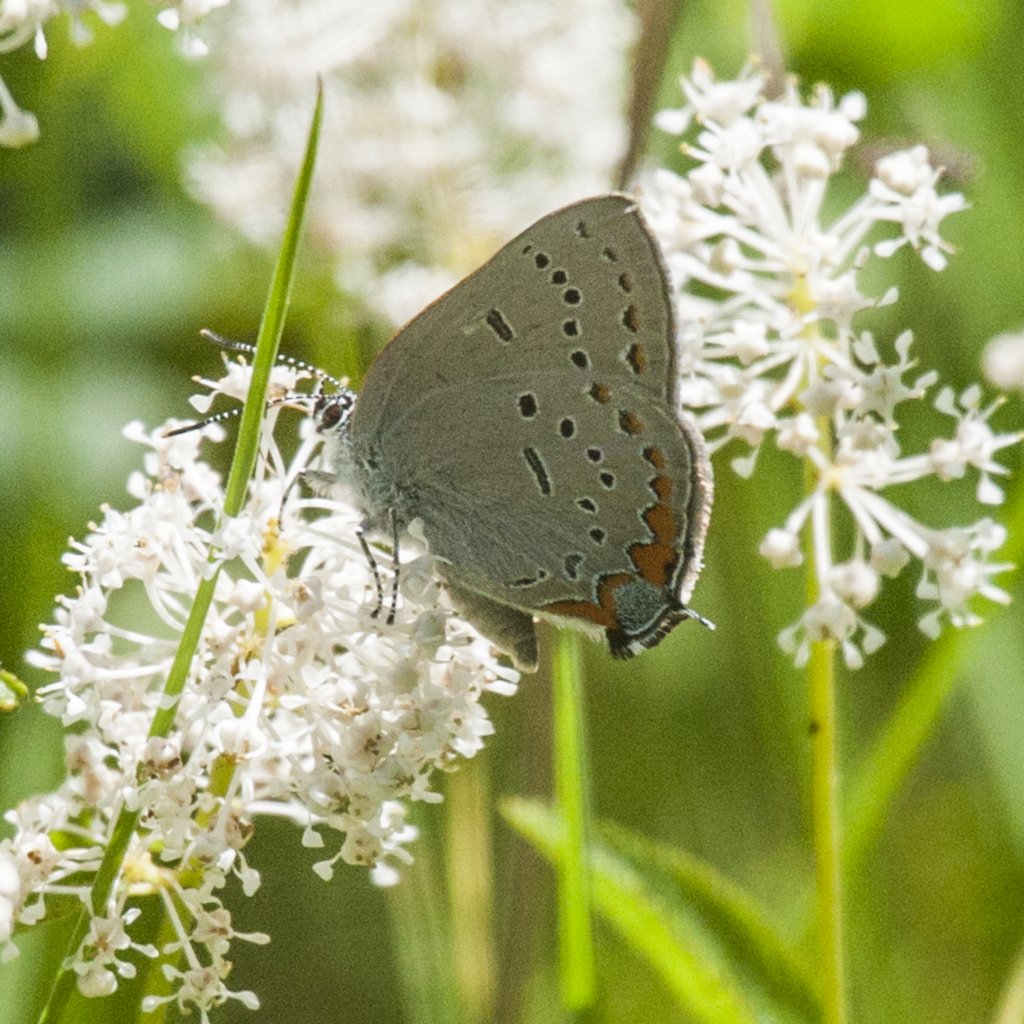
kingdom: Animalia
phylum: Arthropoda
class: Insecta
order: Lepidoptera
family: Lycaenidae
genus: Strymon
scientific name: Strymon acadica
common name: Acadian Hairstreak
